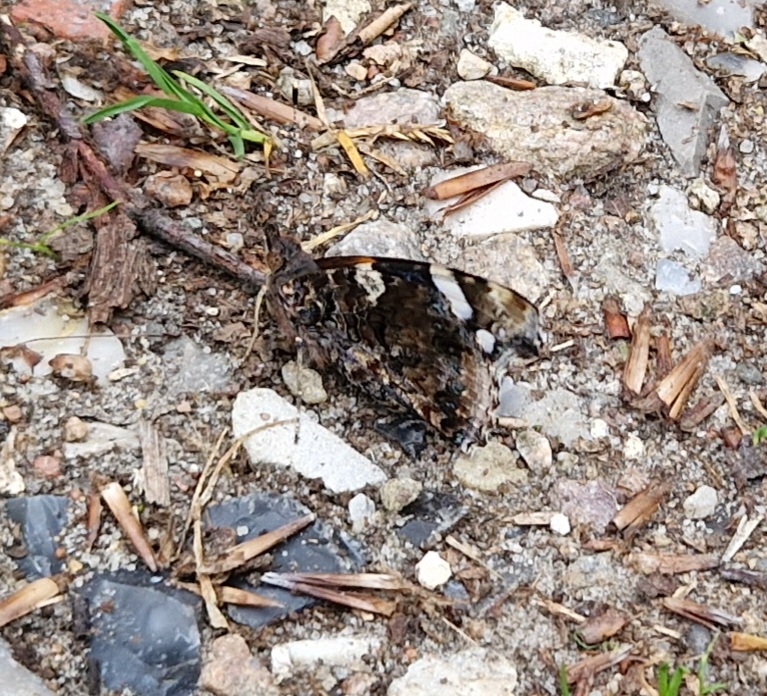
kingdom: Animalia
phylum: Arthropoda
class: Insecta
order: Lepidoptera
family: Nymphalidae
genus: Vanessa
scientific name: Vanessa atalanta
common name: Admiral
